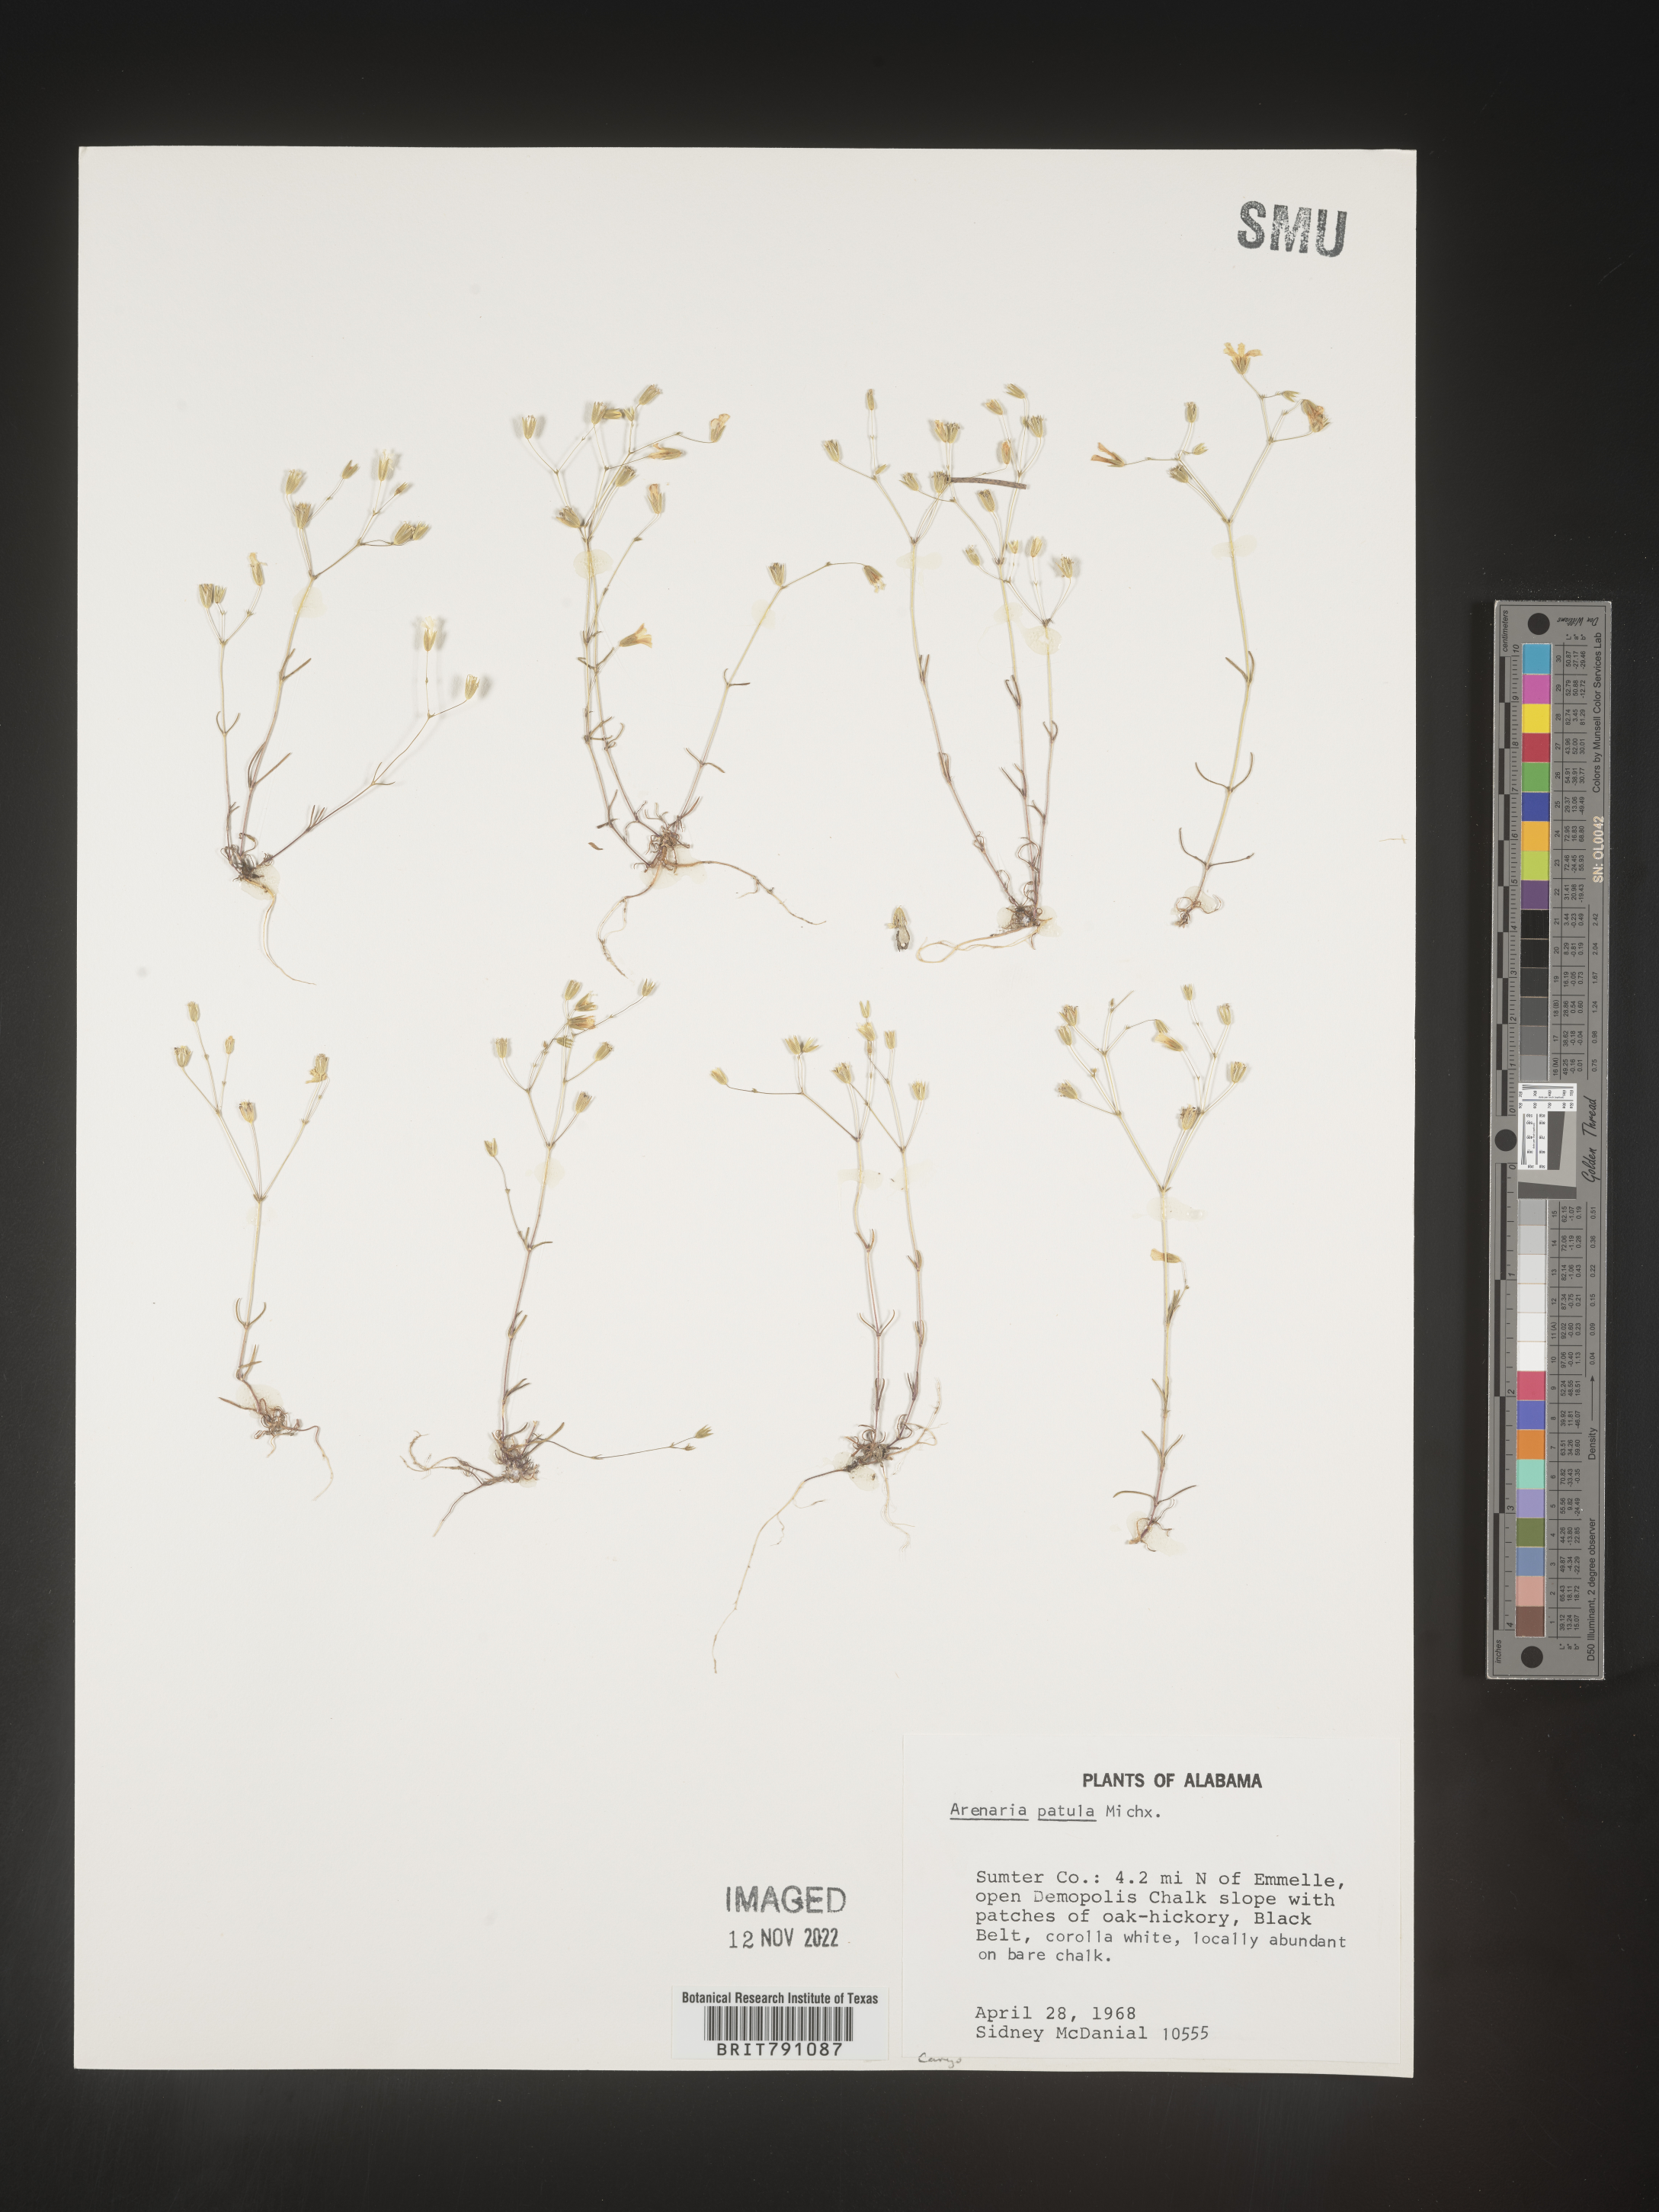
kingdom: Plantae
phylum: Tracheophyta
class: Magnoliopsida
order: Caryophyllales
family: Caryophyllaceae
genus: Mononeuria
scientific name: Mononeuria patula
